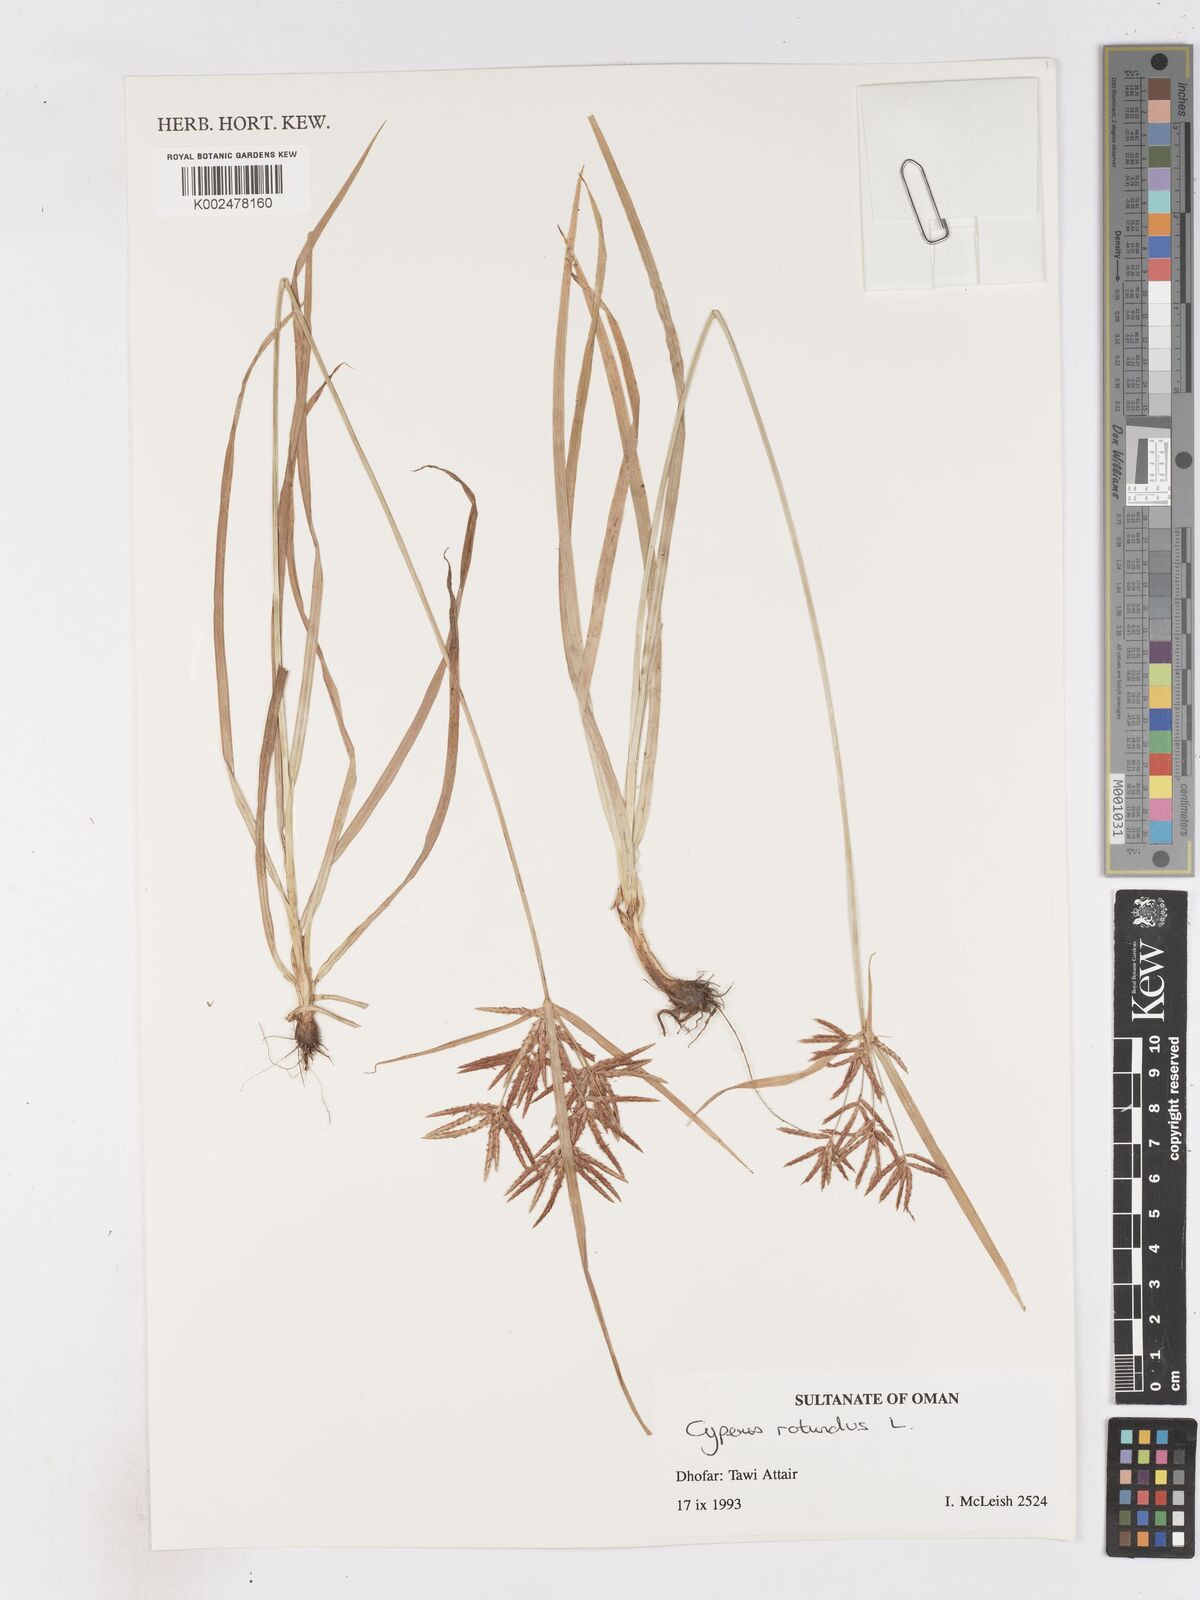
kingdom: Plantae
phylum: Tracheophyta
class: Liliopsida
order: Poales
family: Cyperaceae
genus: Cyperus
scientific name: Cyperus rotundus
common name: Nutgrass
